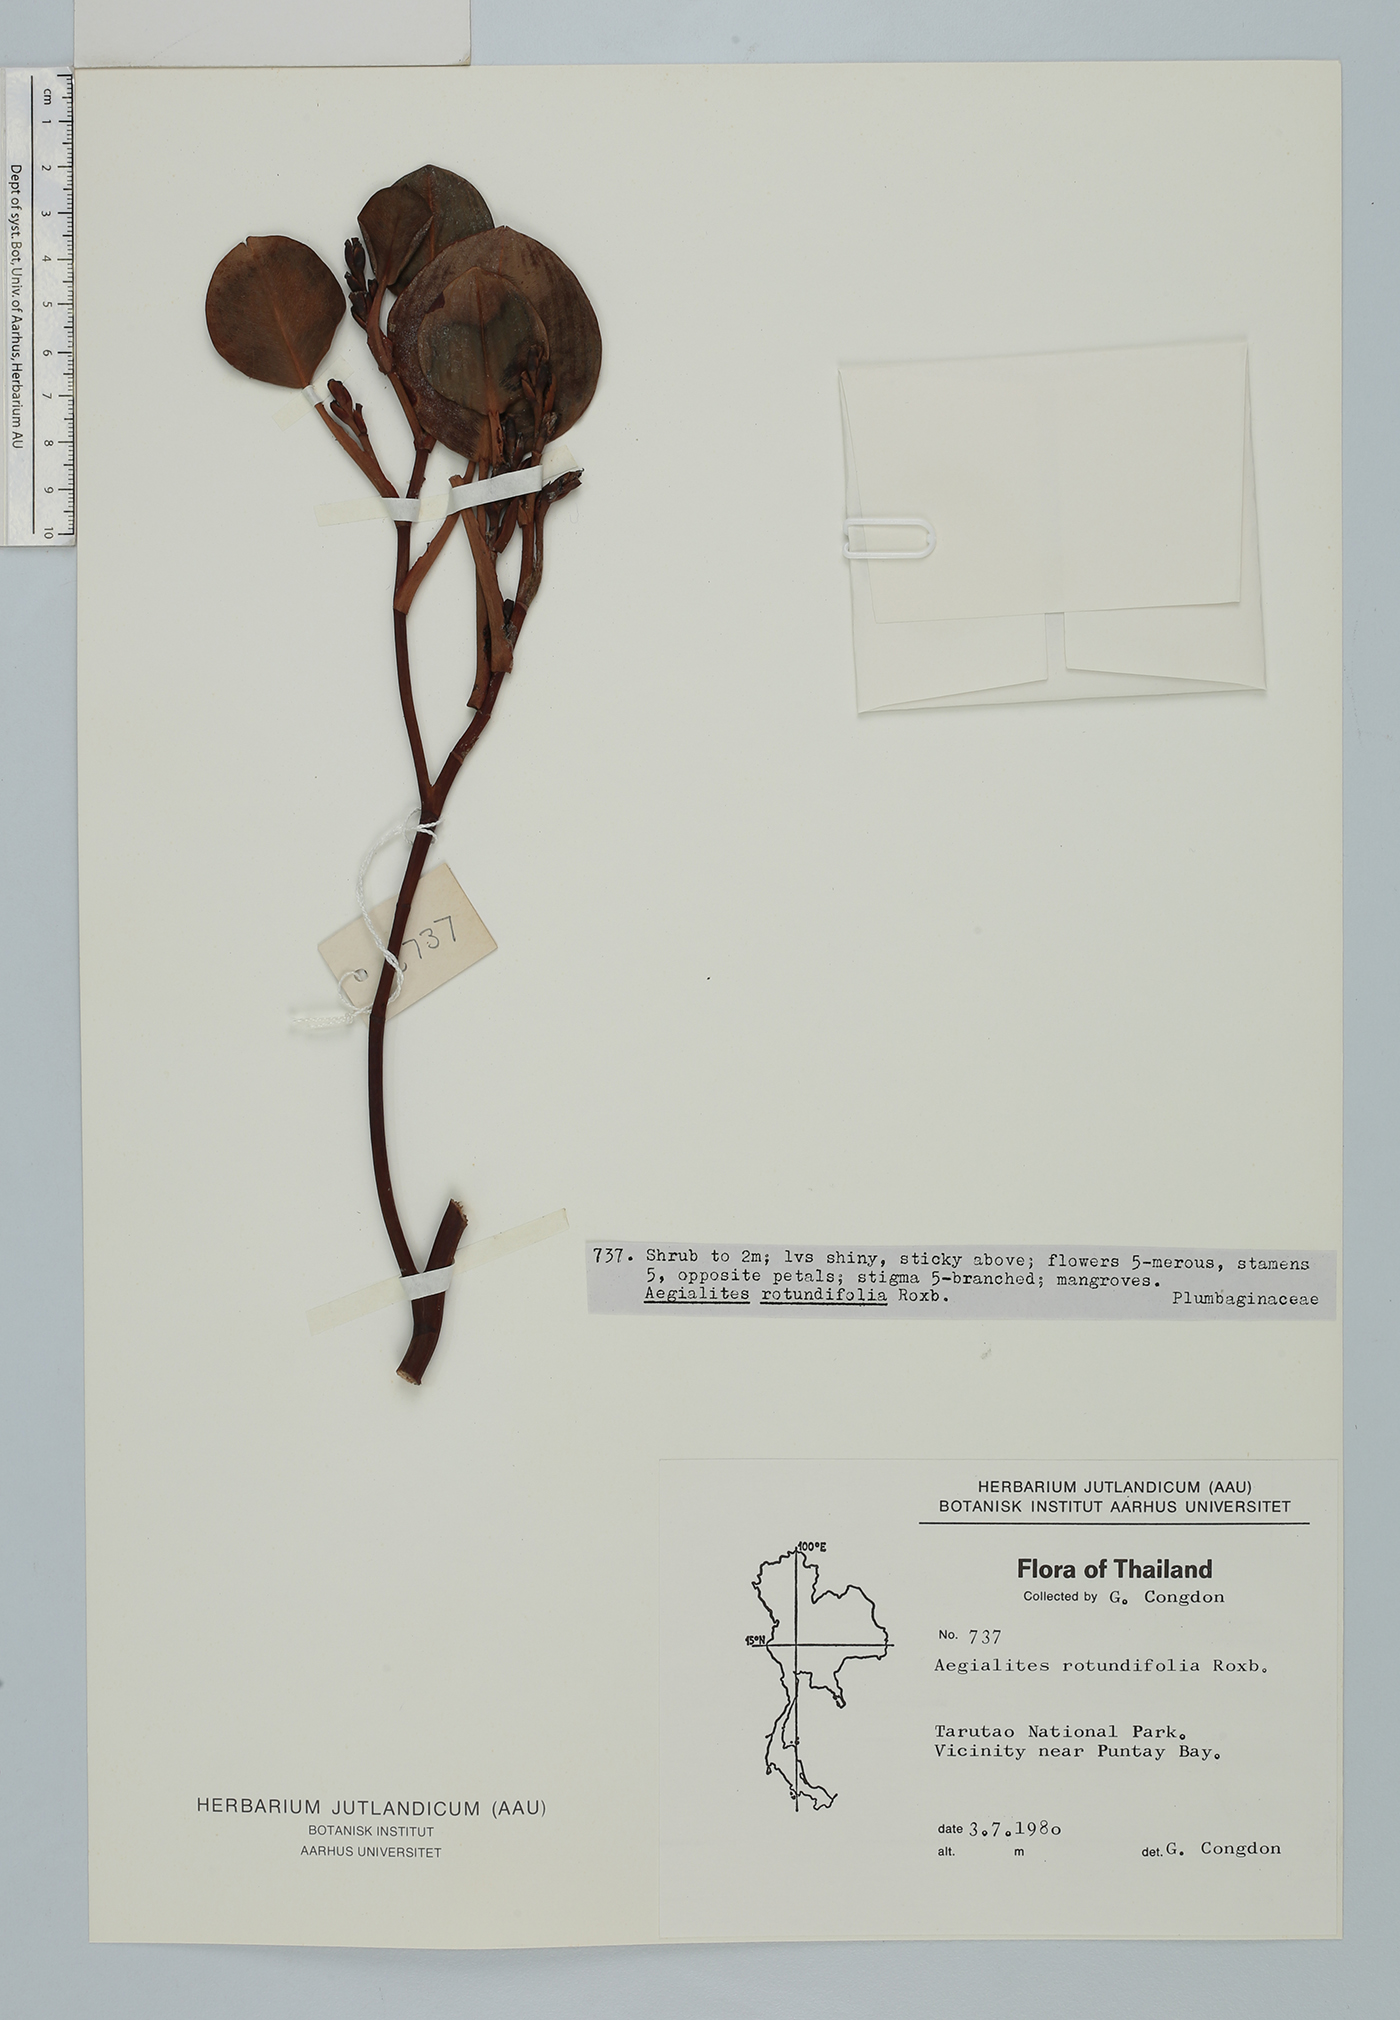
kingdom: Plantae
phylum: Tracheophyta
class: Magnoliopsida
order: Caryophyllales
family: Plumbaginaceae
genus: Aegialitis
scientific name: Aegialitis rotundifolia
